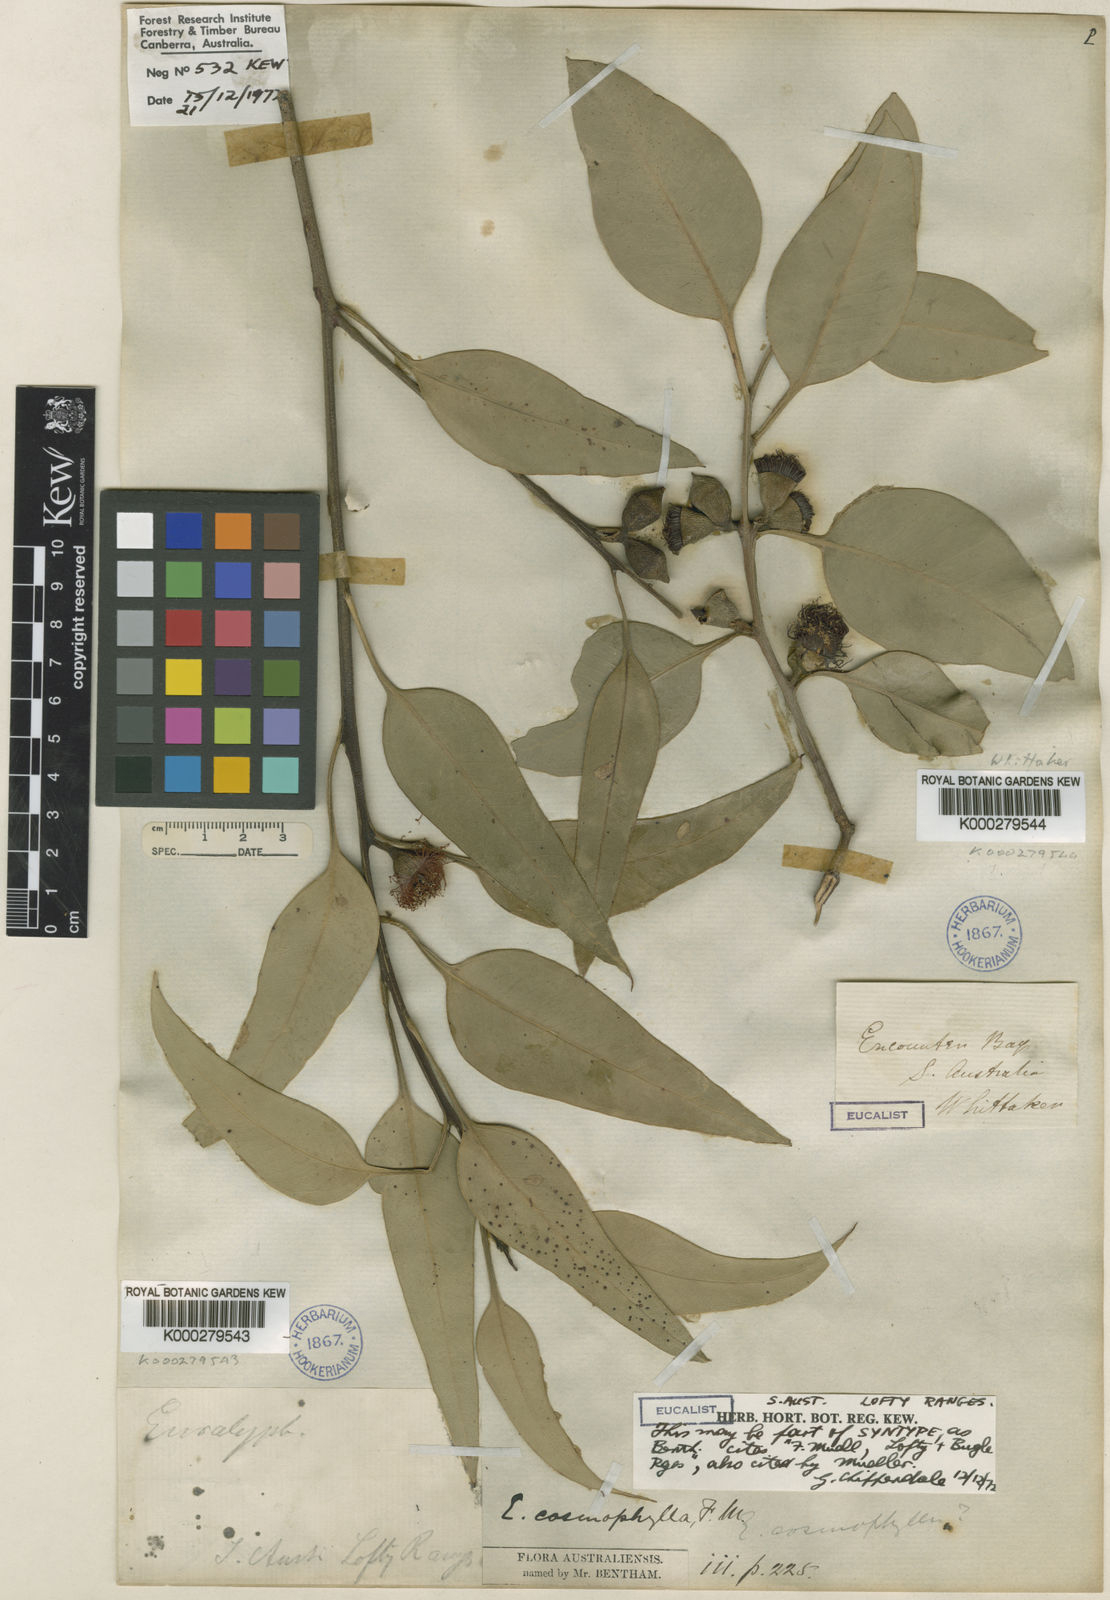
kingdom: Plantae
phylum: Tracheophyta
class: Magnoliopsida
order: Myrtales
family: Myrtaceae
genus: Eucalyptus
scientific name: Eucalyptus cosmophylla
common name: Bog-gum
